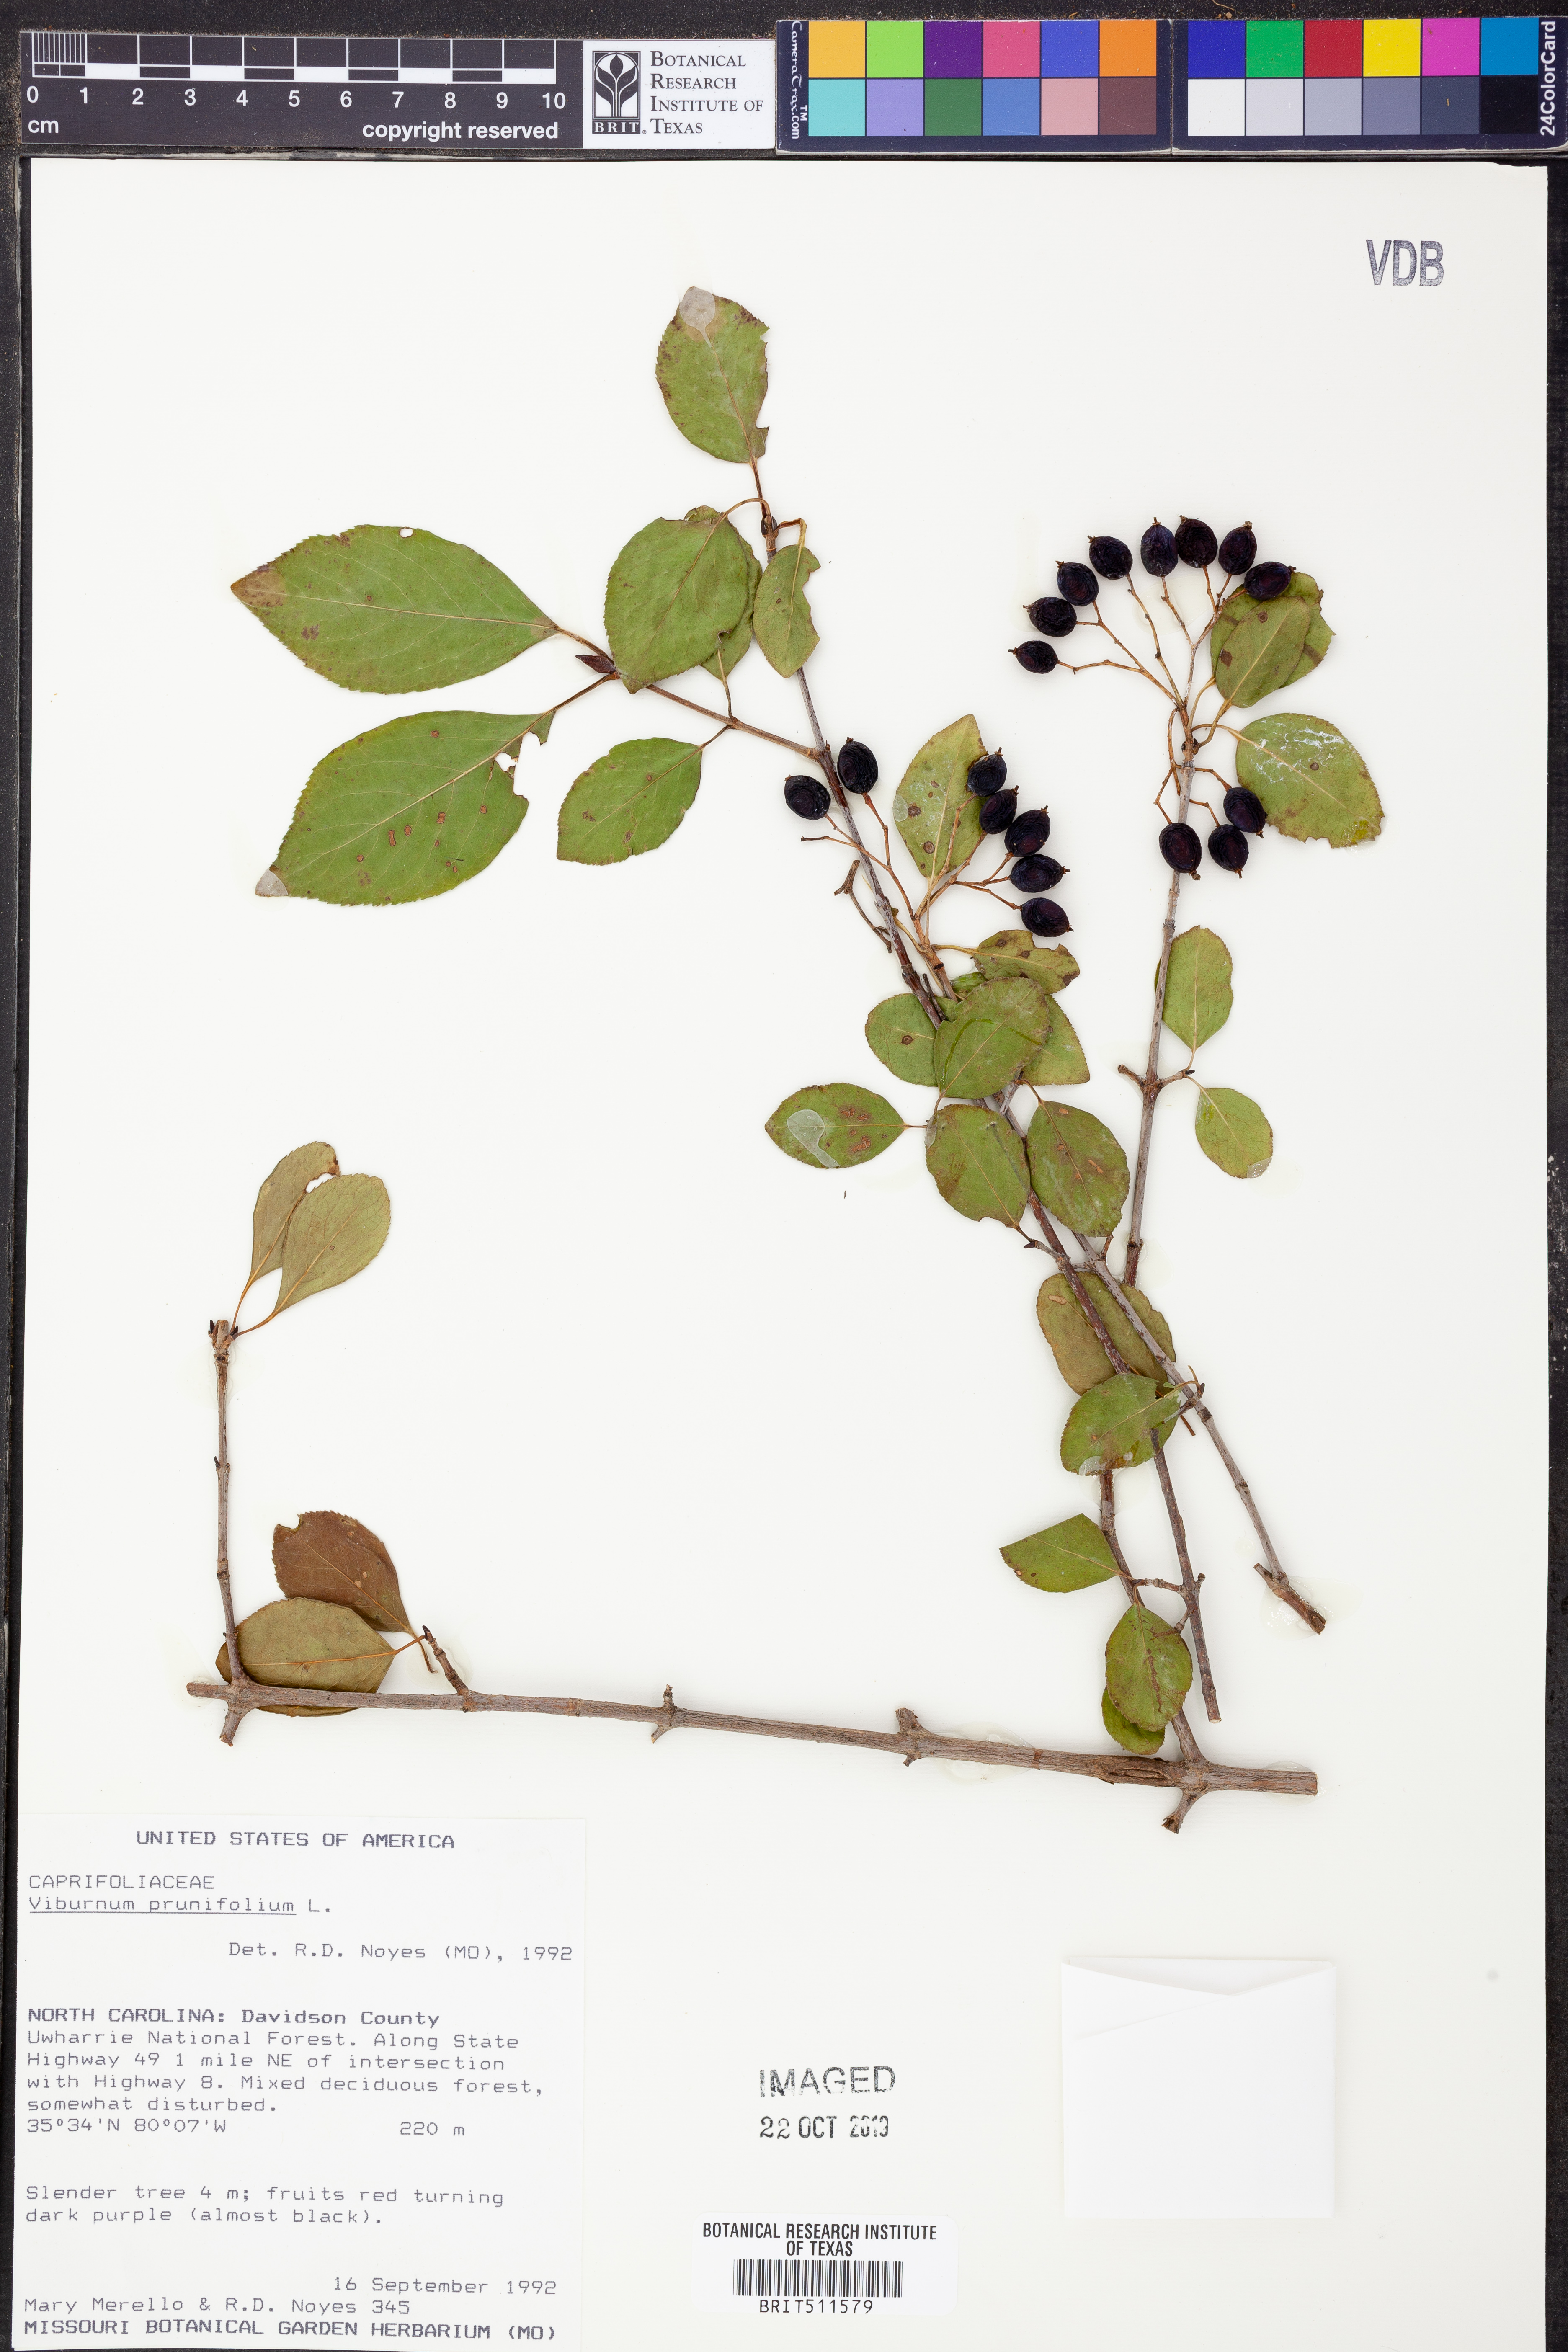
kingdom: Plantae
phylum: Tracheophyta
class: Magnoliopsida
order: Dipsacales
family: Viburnaceae
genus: Viburnum
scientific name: Viburnum prunifolium
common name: Black haw
